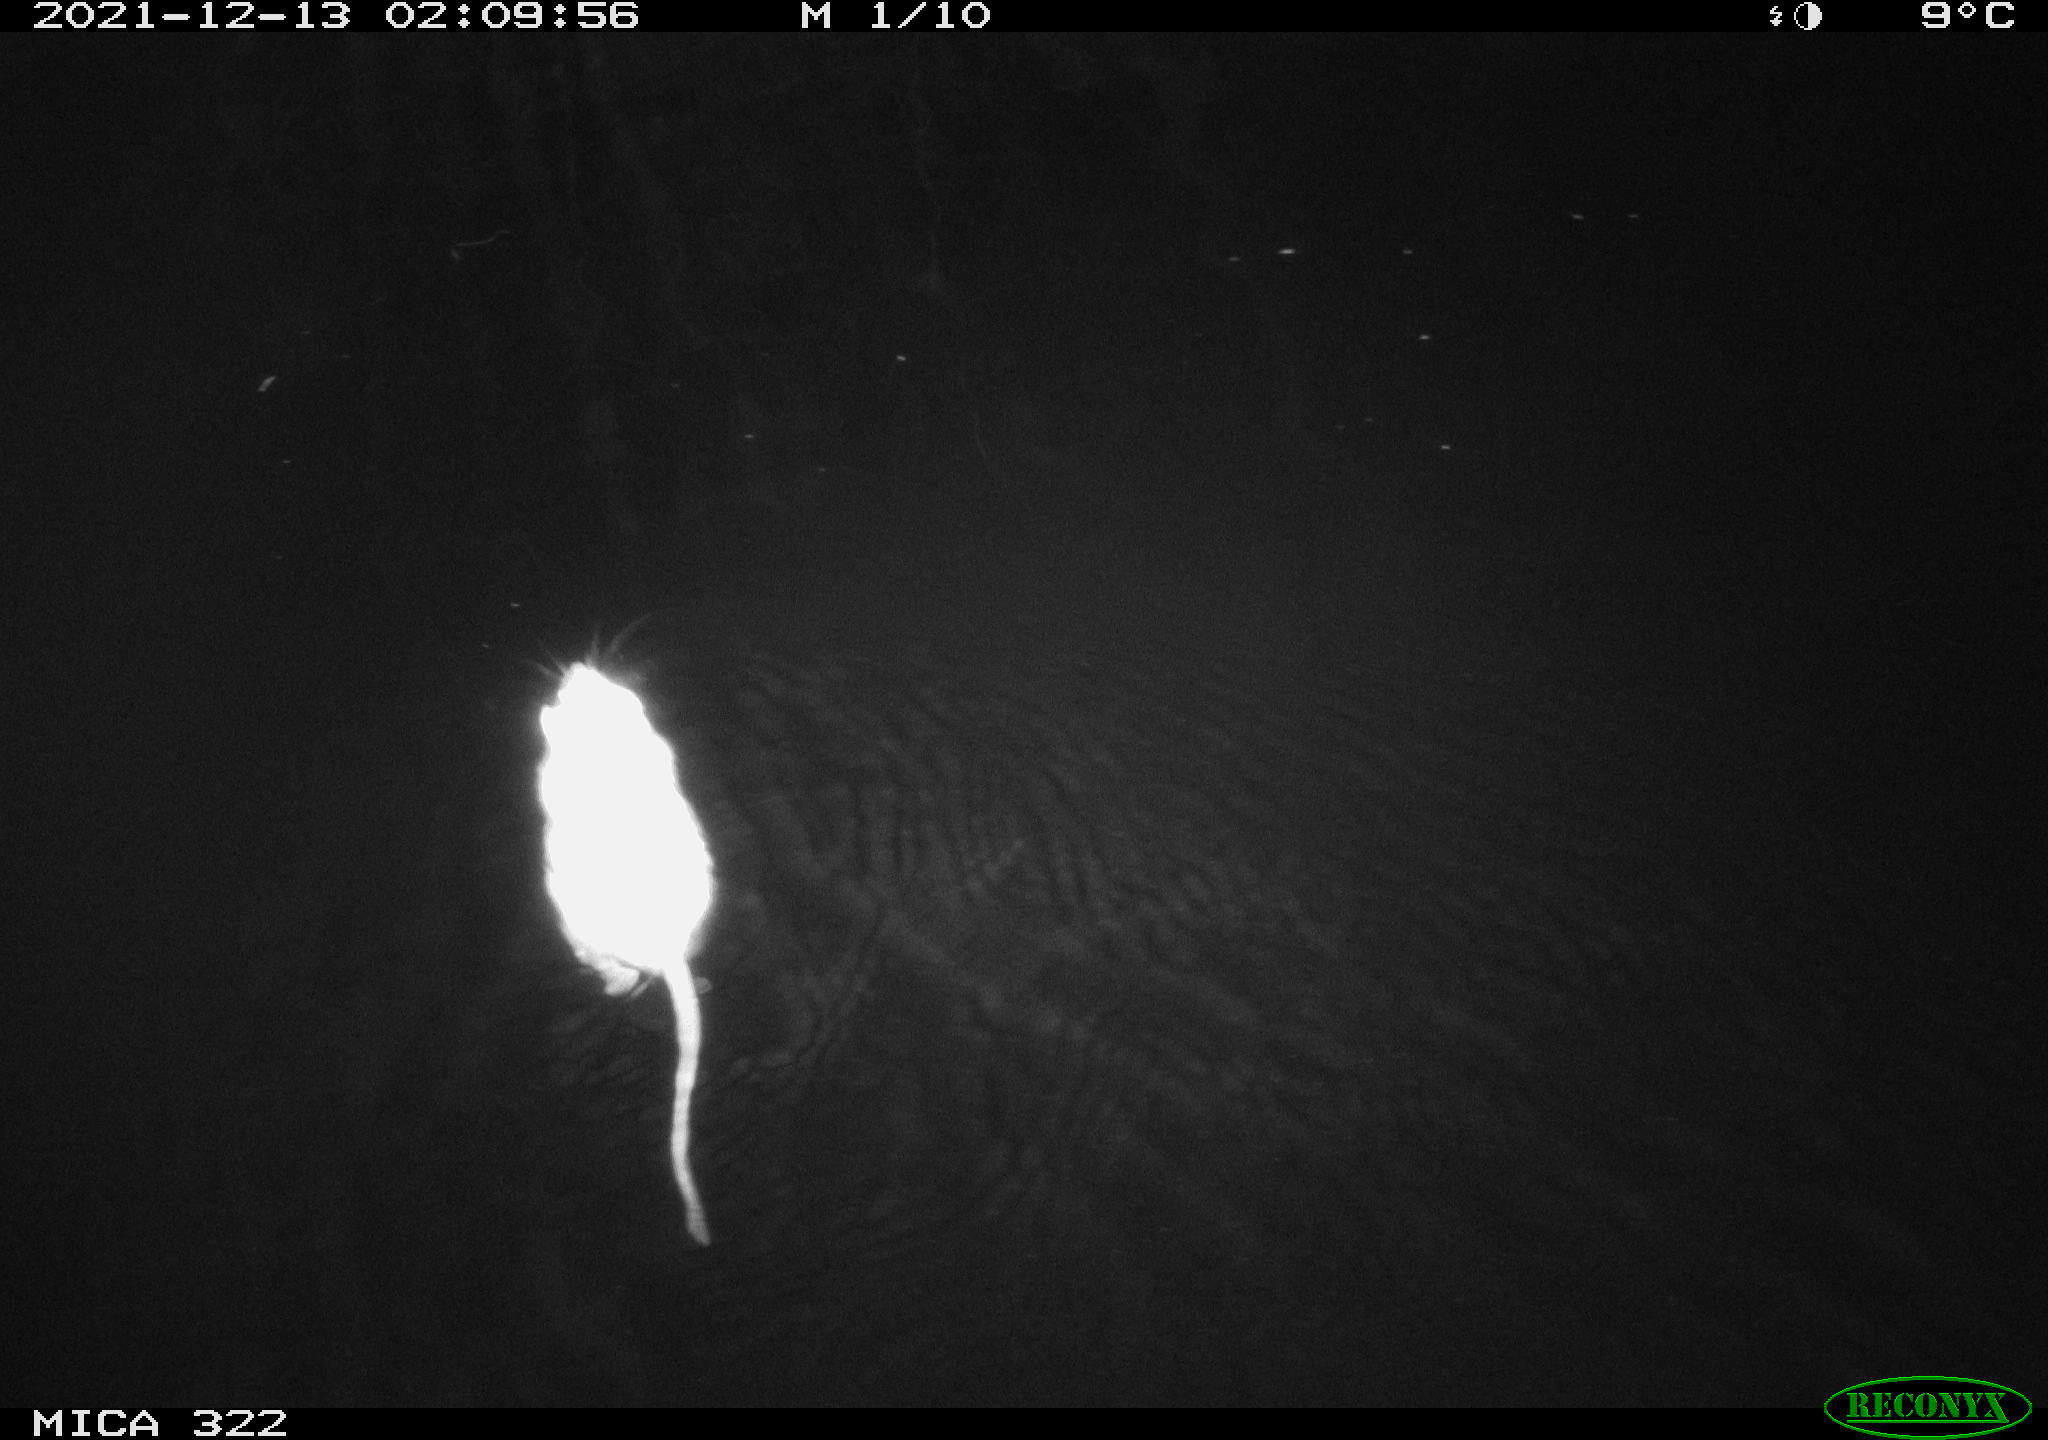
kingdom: Animalia
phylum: Chordata
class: Mammalia
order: Rodentia
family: Muridae
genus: Rattus
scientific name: Rattus norvegicus
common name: Brown rat
